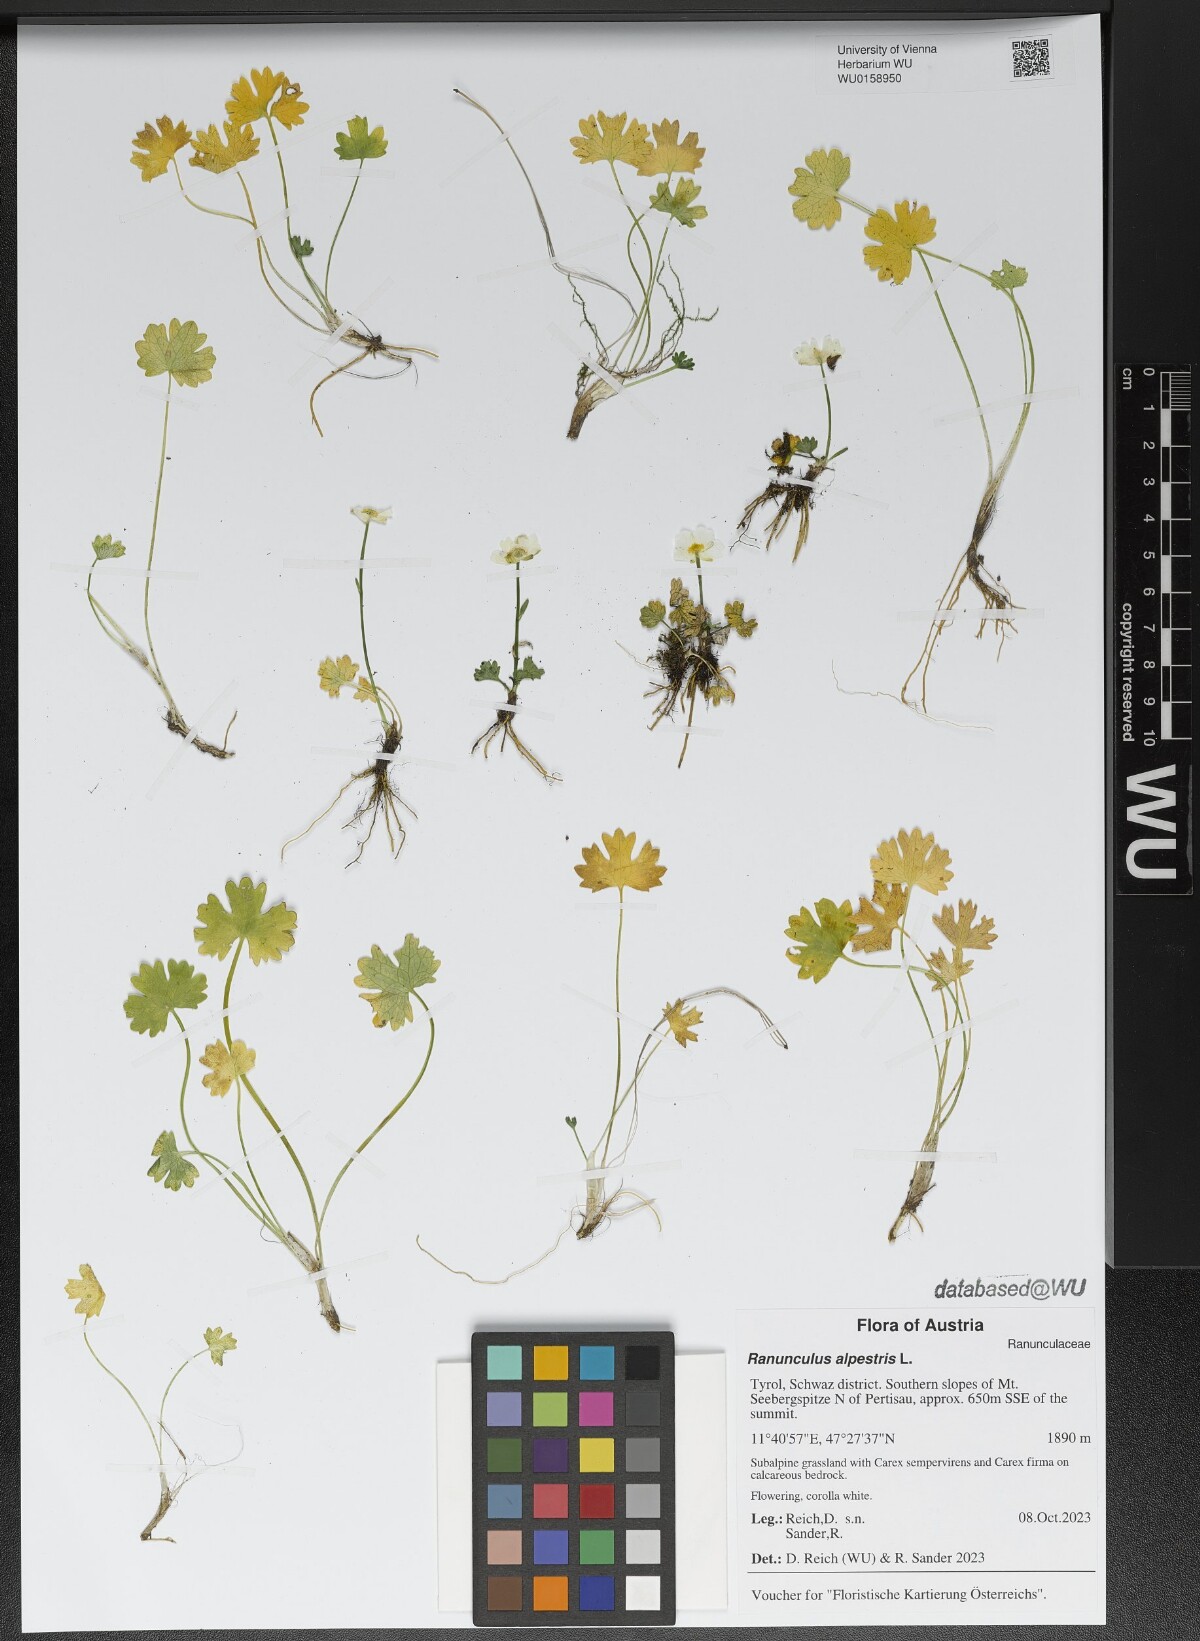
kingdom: Plantae
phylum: Tracheophyta
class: Magnoliopsida
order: Ranunculales
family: Ranunculaceae
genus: Ranunculus
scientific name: Ranunculus alpestris
